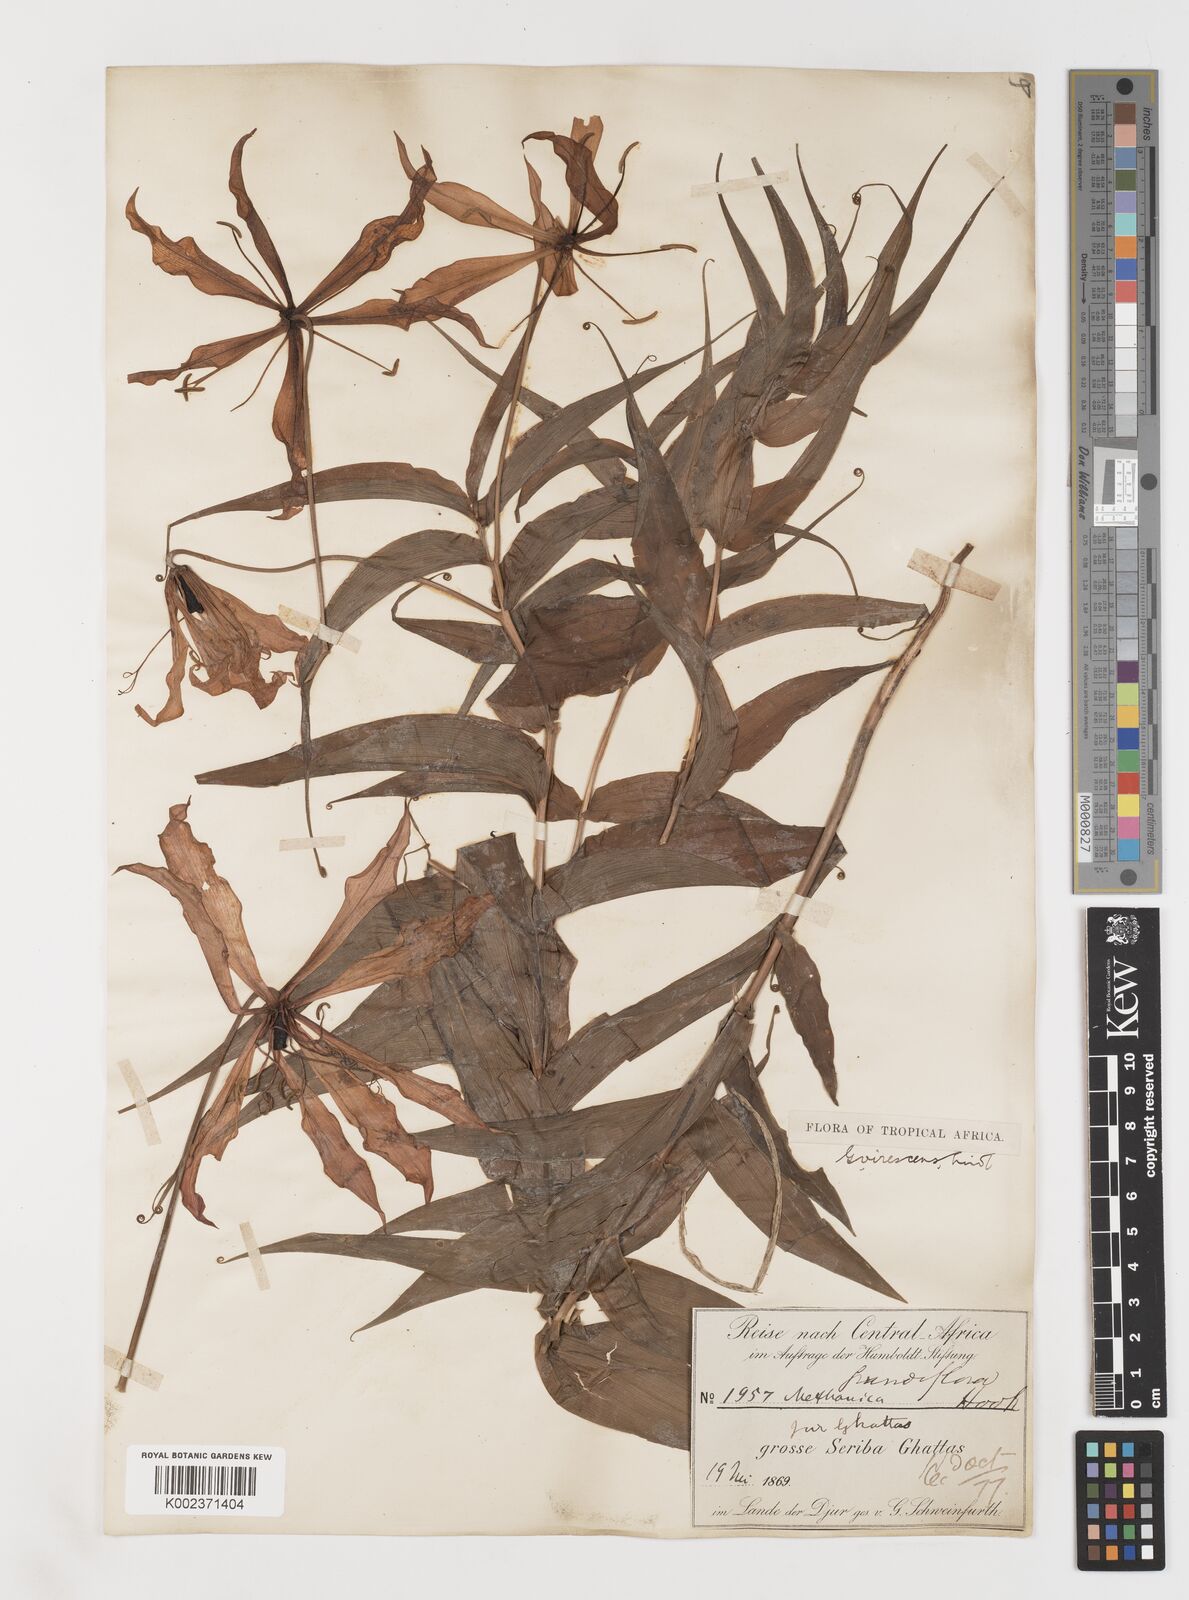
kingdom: Plantae
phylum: Tracheophyta
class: Liliopsida
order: Liliales
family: Colchicaceae
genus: Gloriosa
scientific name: Gloriosa simplex
